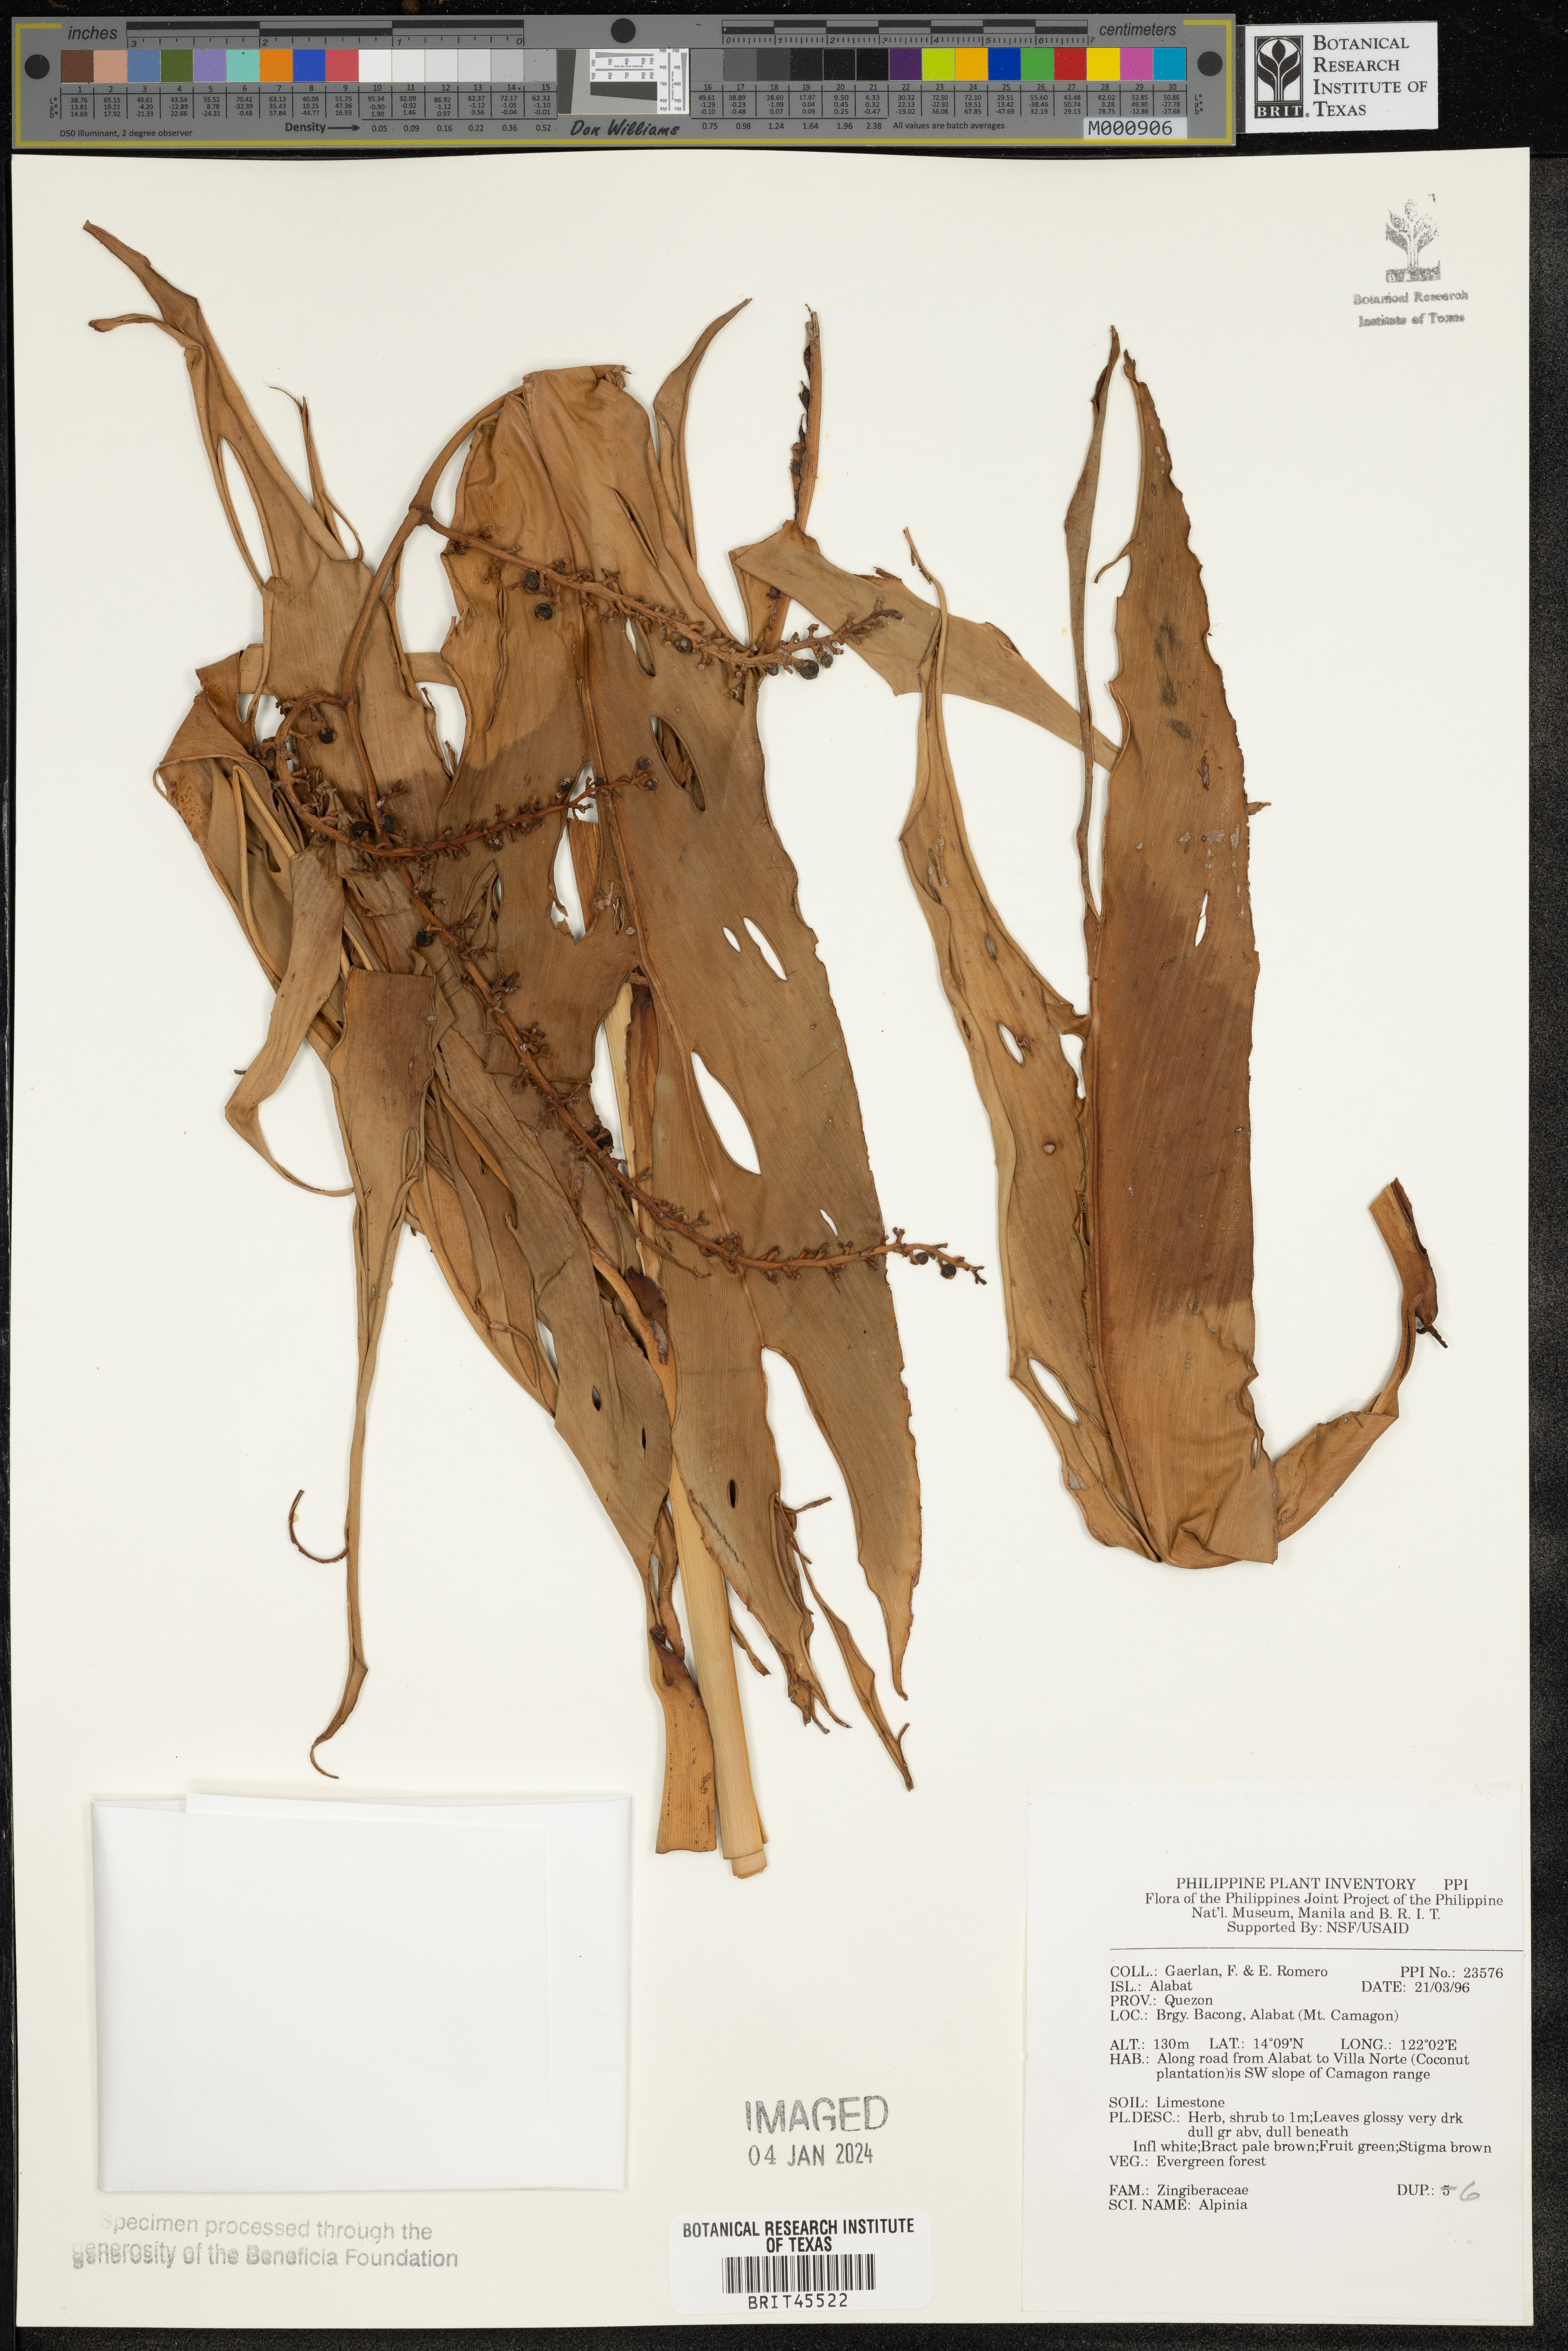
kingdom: Plantae
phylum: Tracheophyta
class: Liliopsida
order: Zingiberales
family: Zingiberaceae
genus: Alpinia
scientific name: Alpinia
